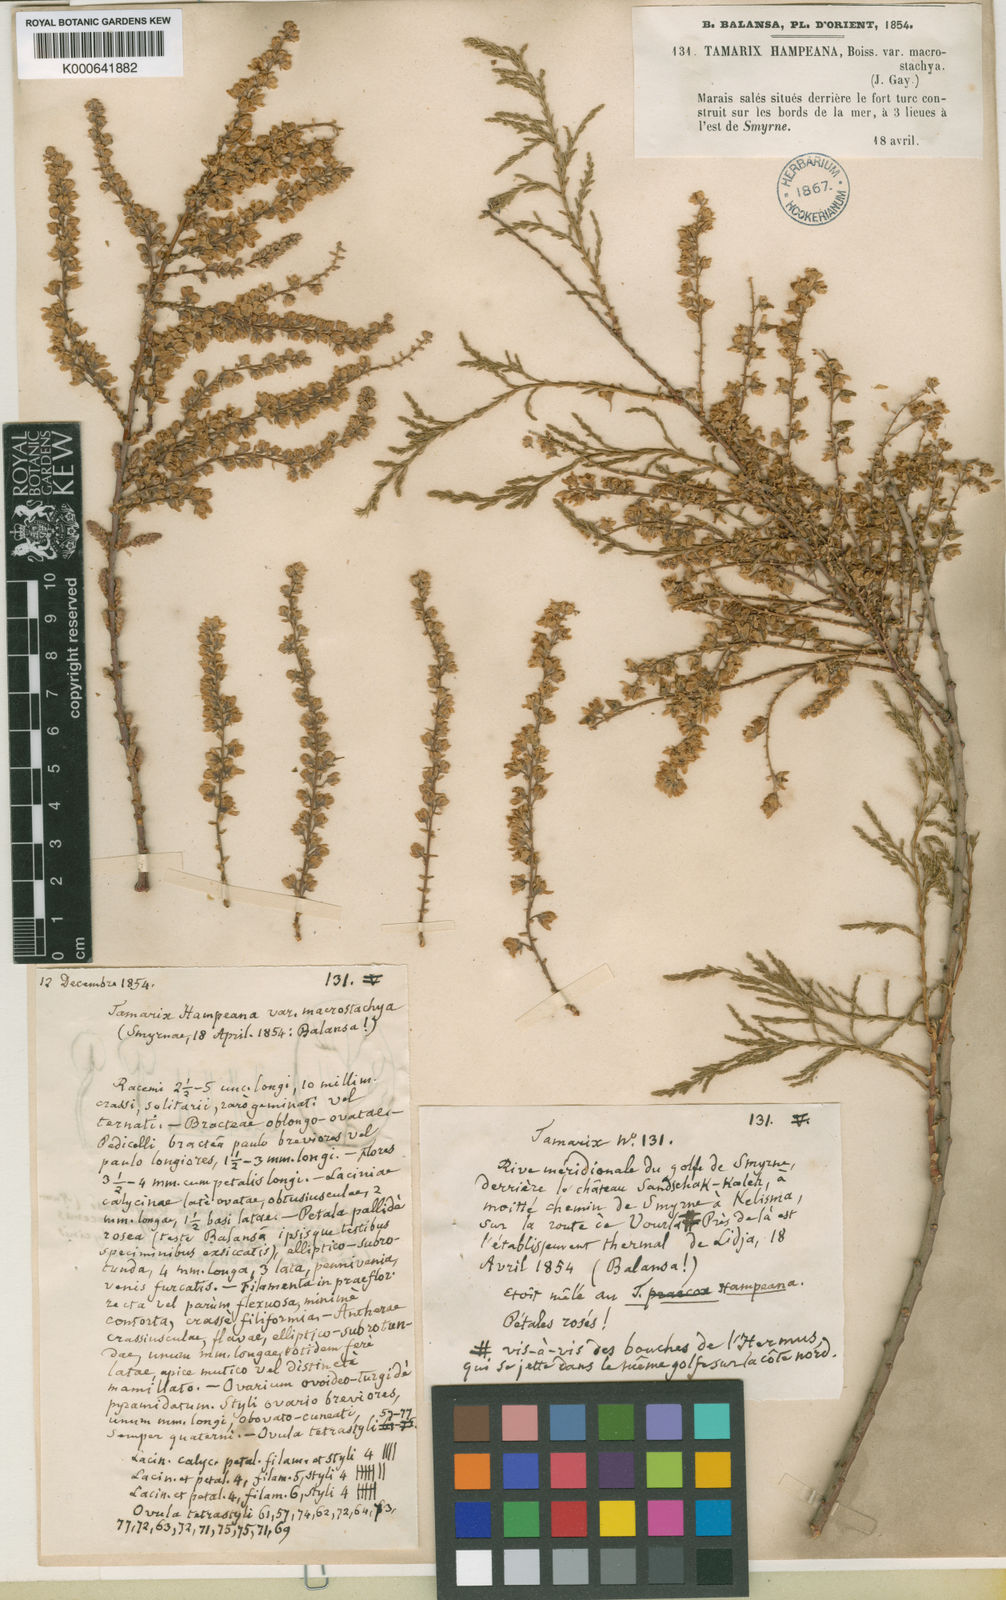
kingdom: Plantae
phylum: Tracheophyta
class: Magnoliopsida
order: Caryophyllales
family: Tamaricaceae
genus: Tamarix
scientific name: Tamarix hampeana
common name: Hampe’s tamarisk
